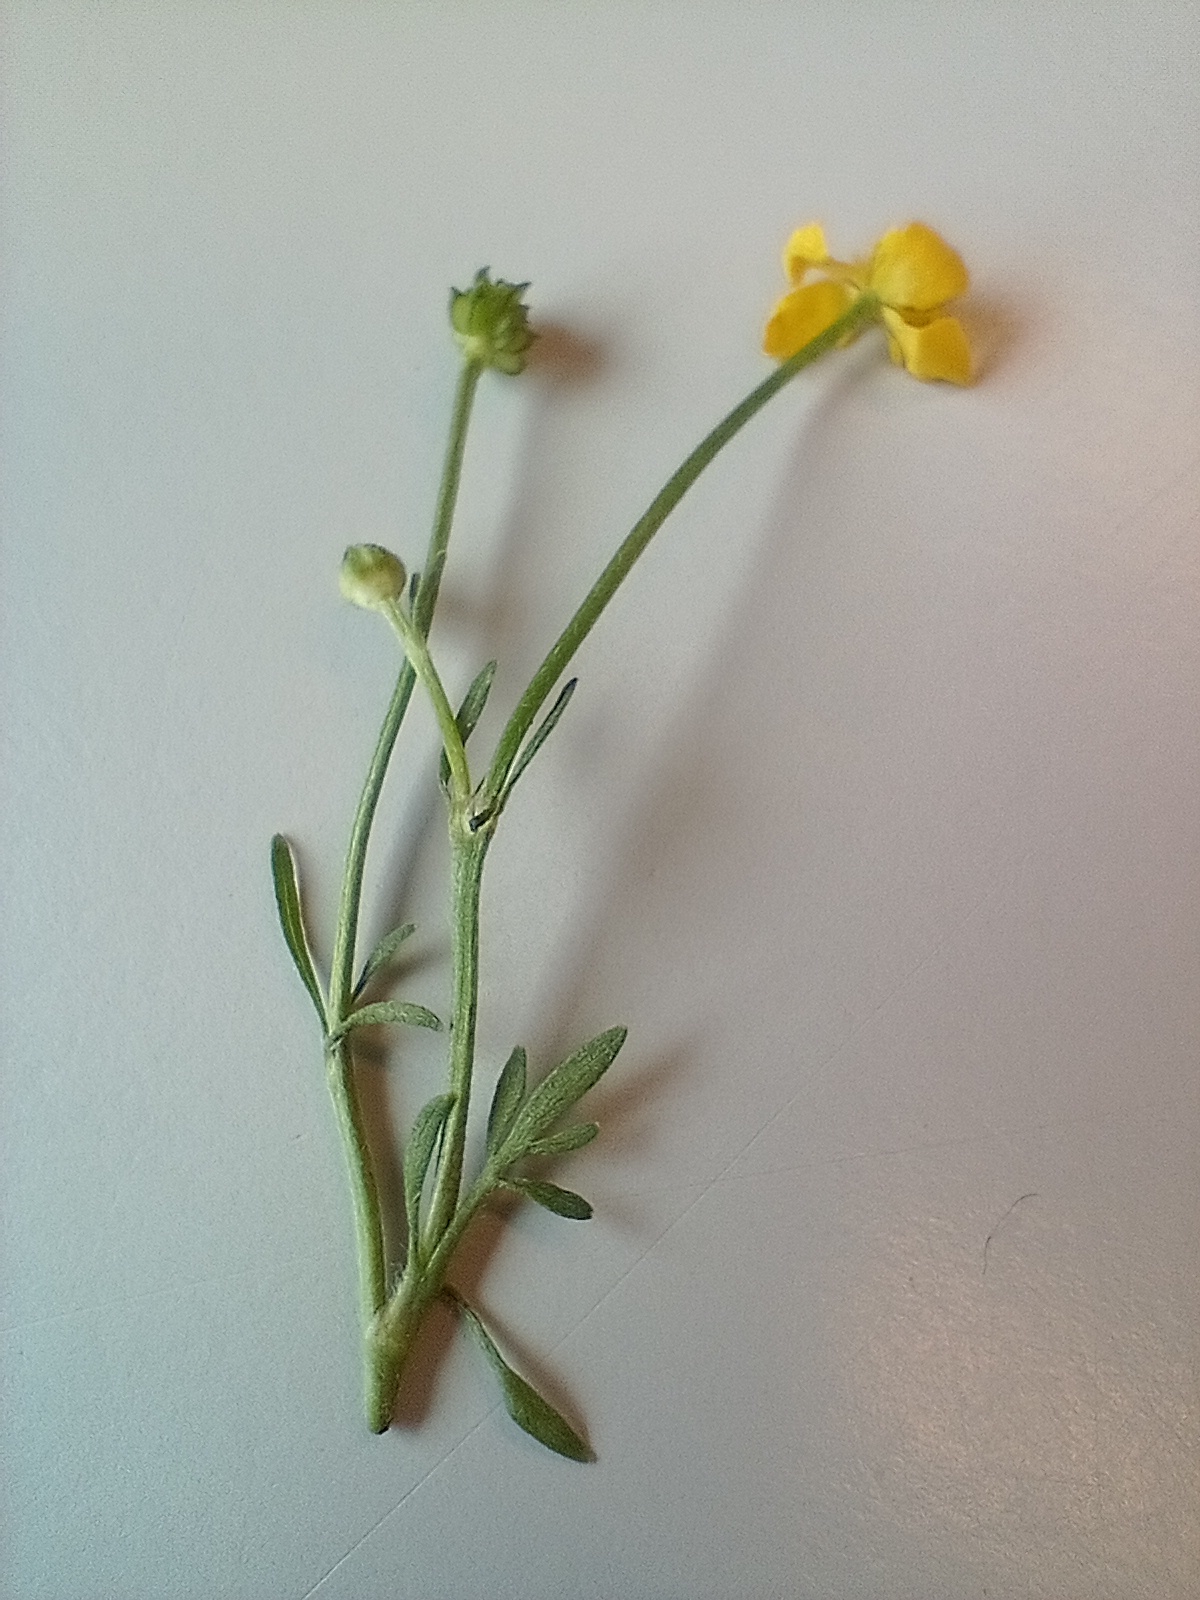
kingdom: Plantae
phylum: Tracheophyta
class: Magnoliopsida
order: Ranunculales
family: Ranunculaceae
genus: Ranunculus
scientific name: Ranunculus
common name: Ranunkelslægten
